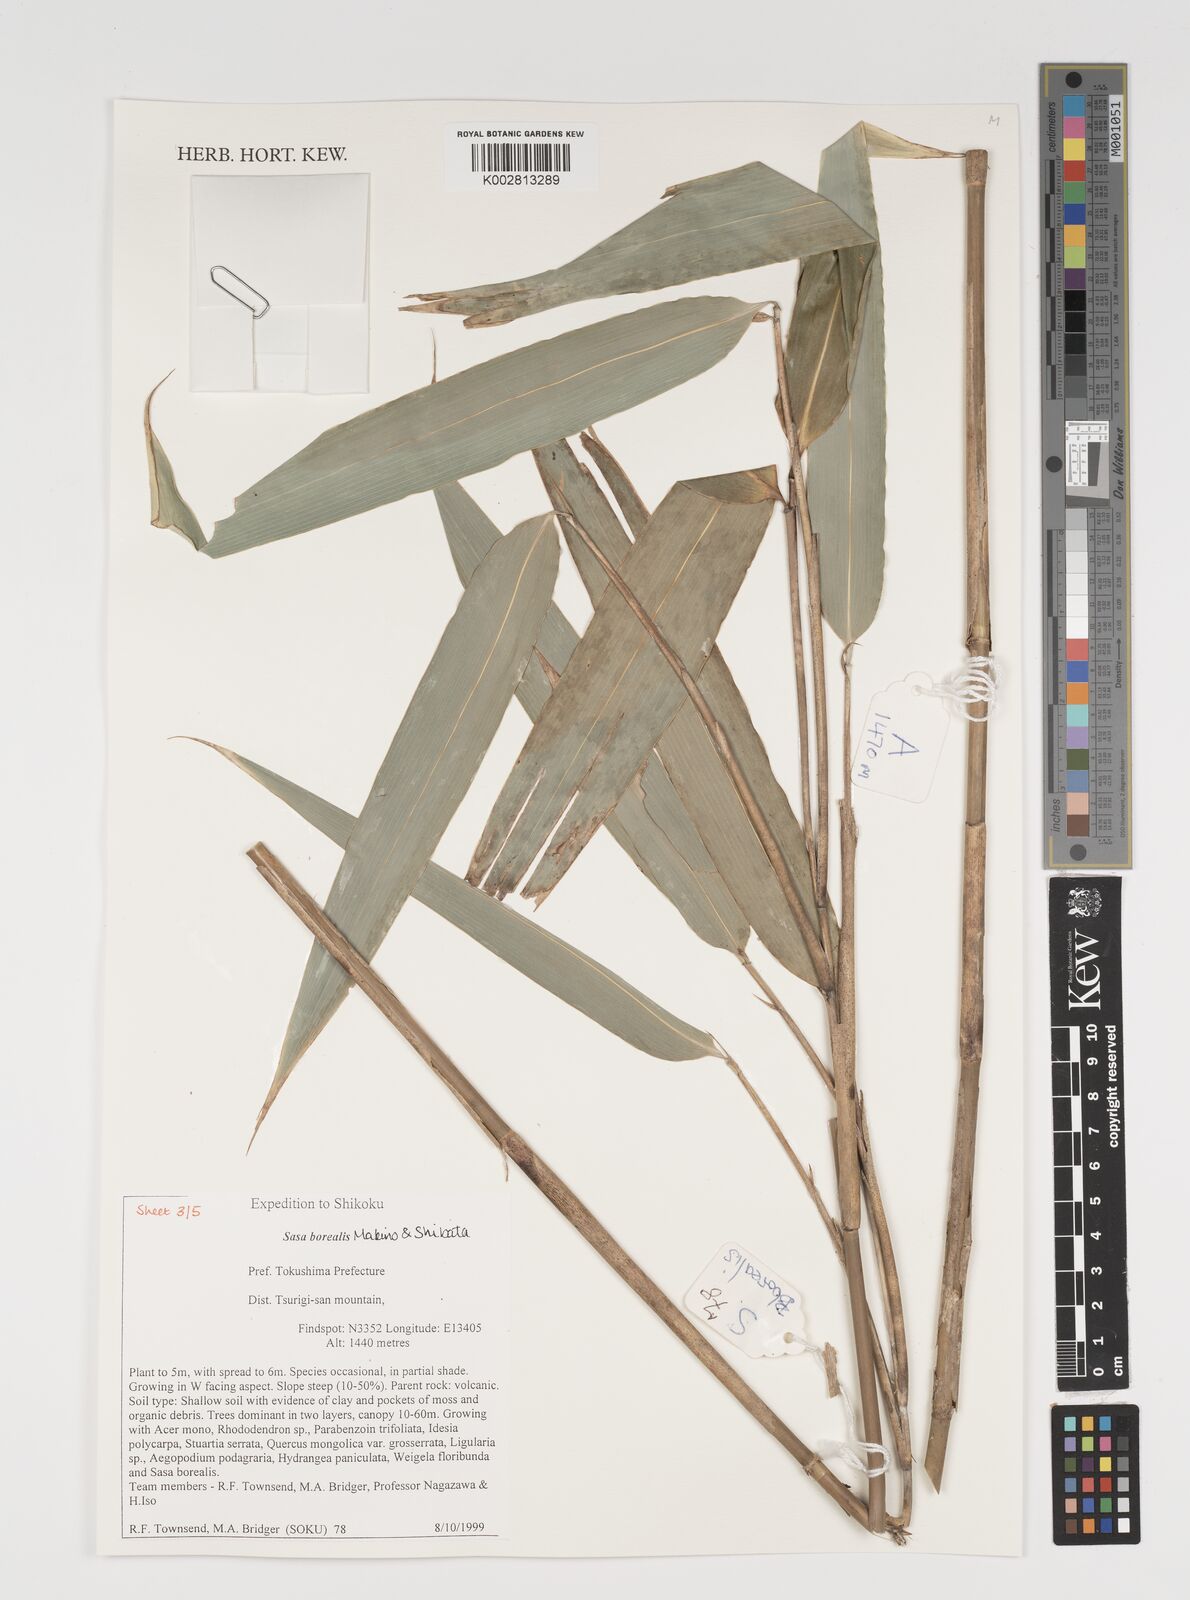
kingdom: Plantae
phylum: Tracheophyta
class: Liliopsida
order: Poales
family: Poaceae
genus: Sasamorpha
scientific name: Sasamorpha borealis
